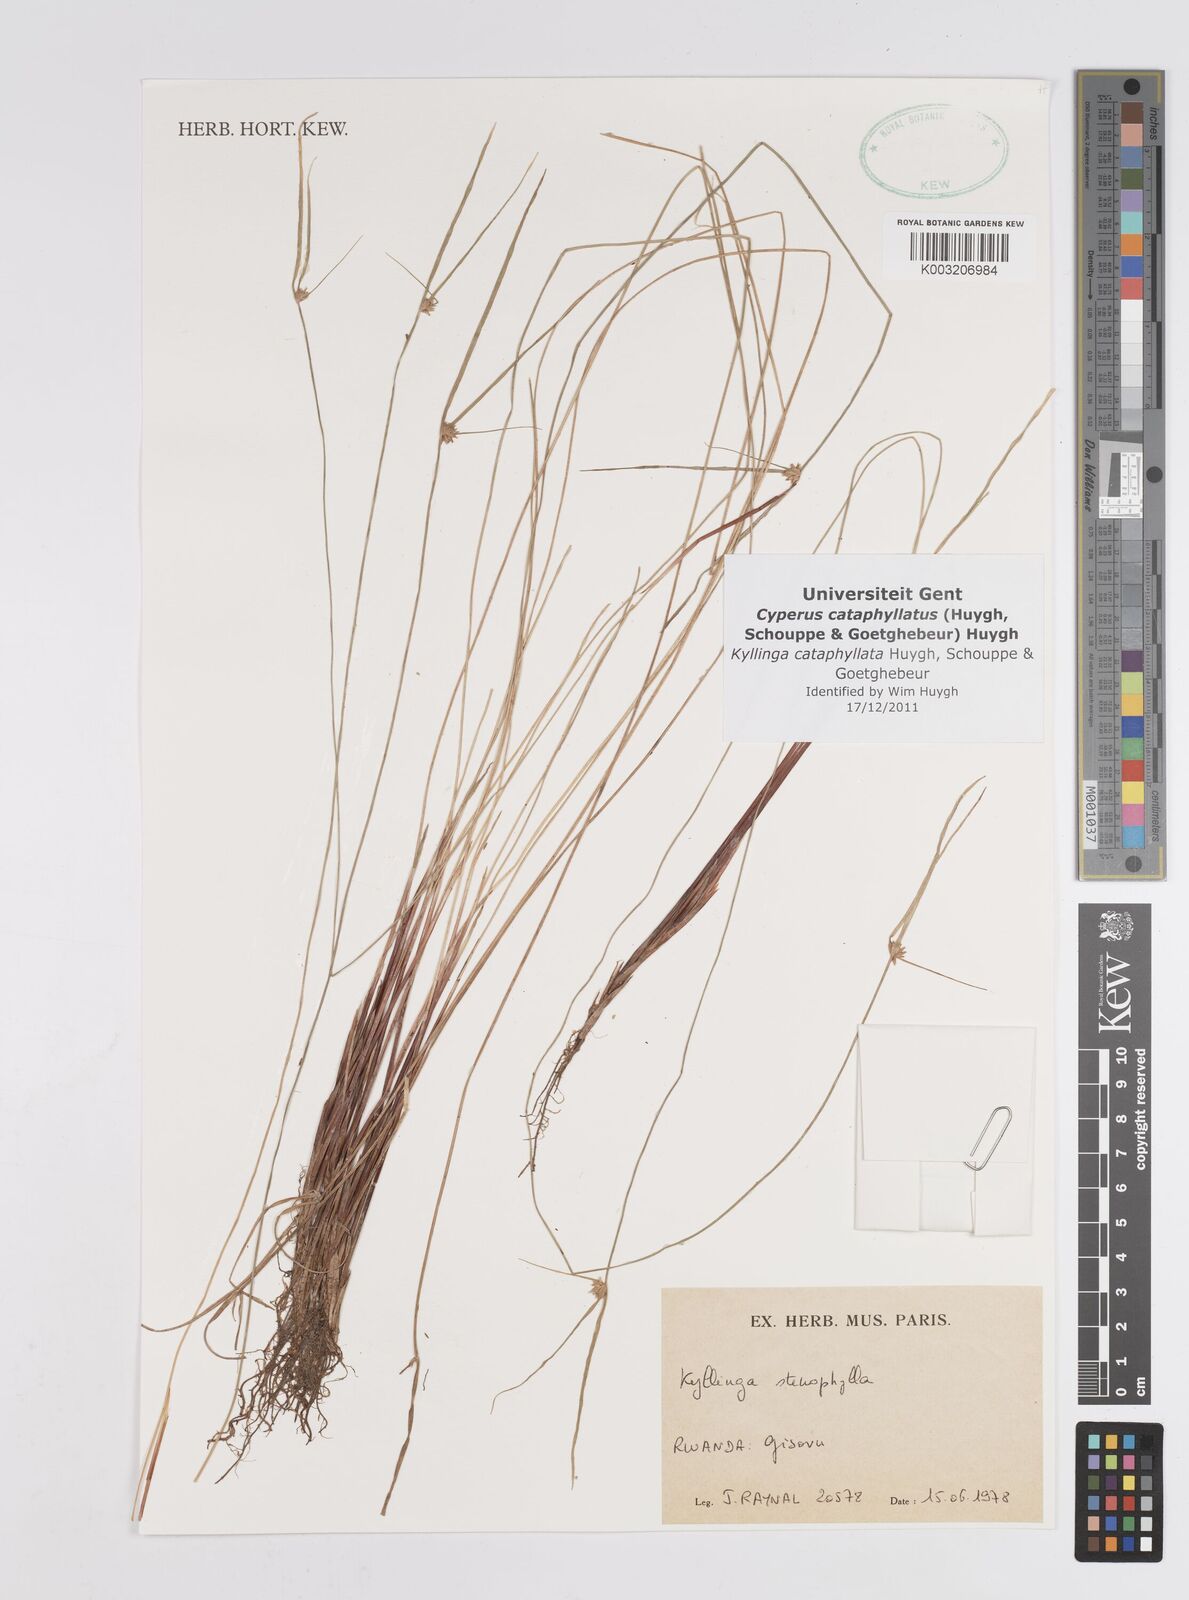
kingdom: Plantae
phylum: Tracheophyta
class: Liliopsida
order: Poales
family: Cyperaceae
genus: Cyperus
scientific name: Cyperus cataphyllatus
